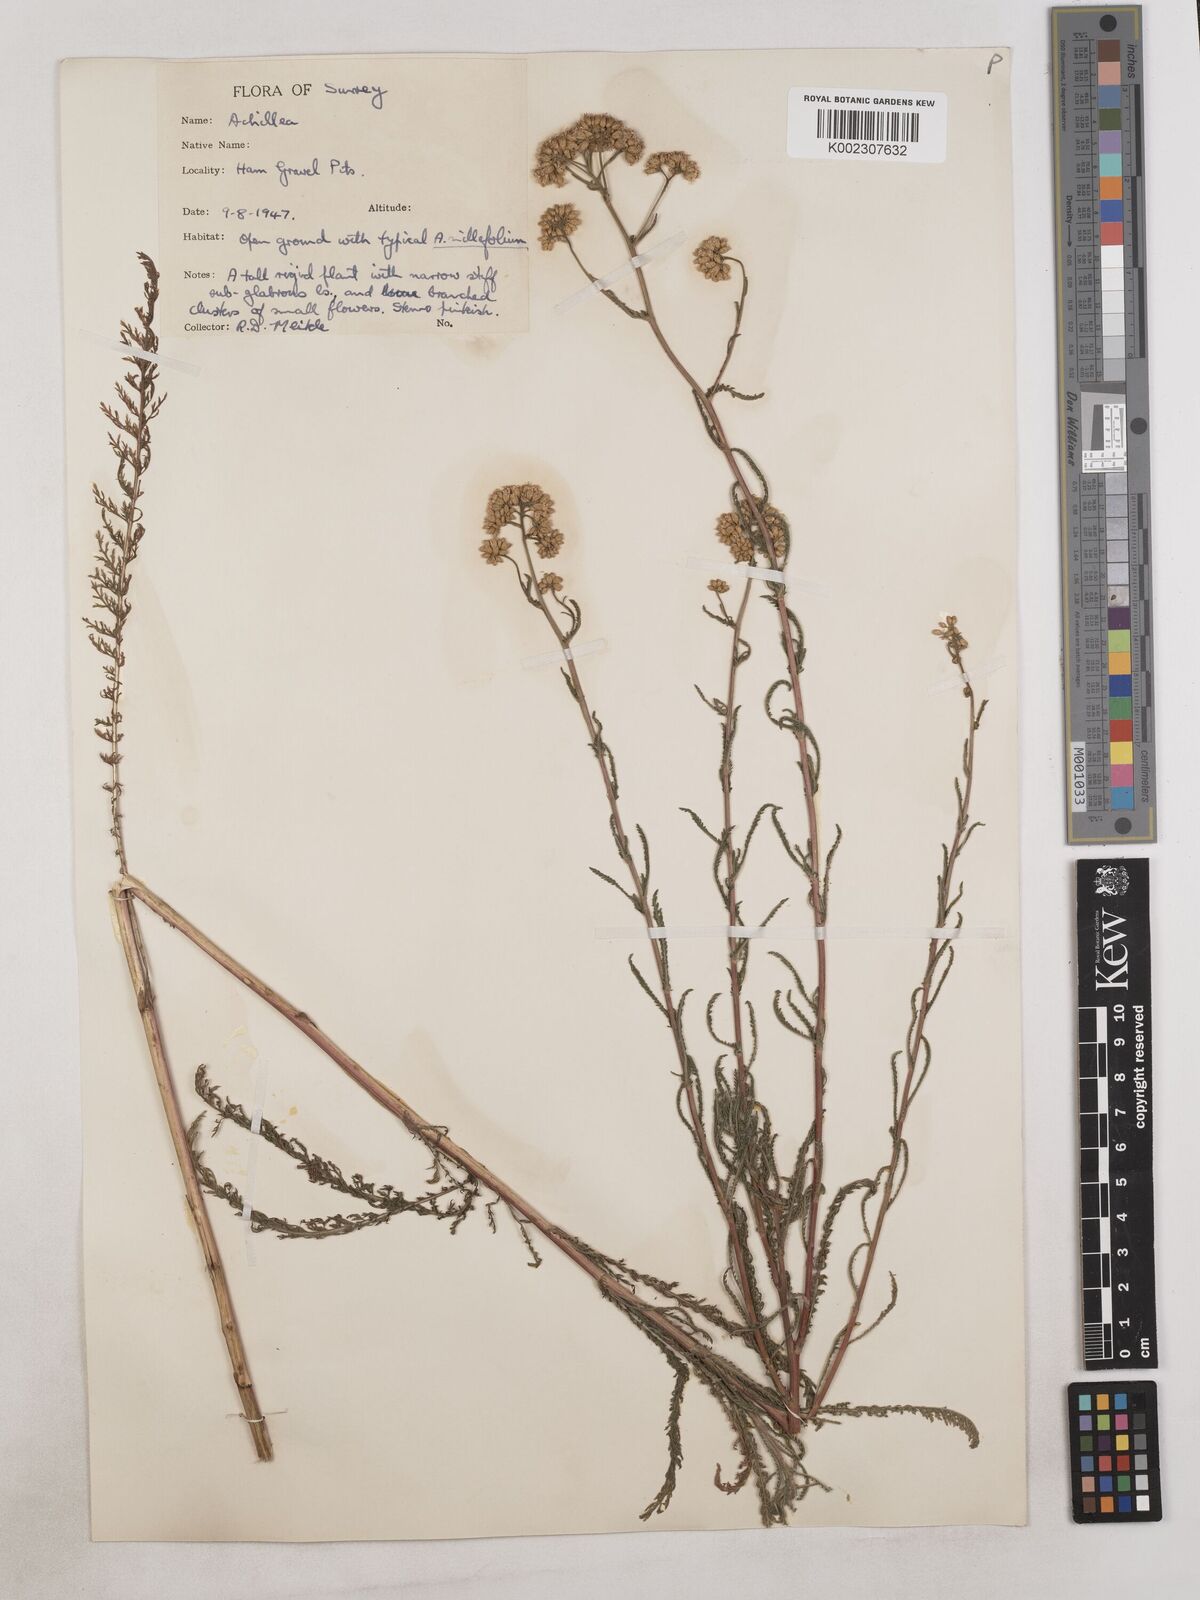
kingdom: Plantae
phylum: Tracheophyta
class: Magnoliopsida
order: Asterales
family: Asteraceae
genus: Achillea
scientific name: Achillea
